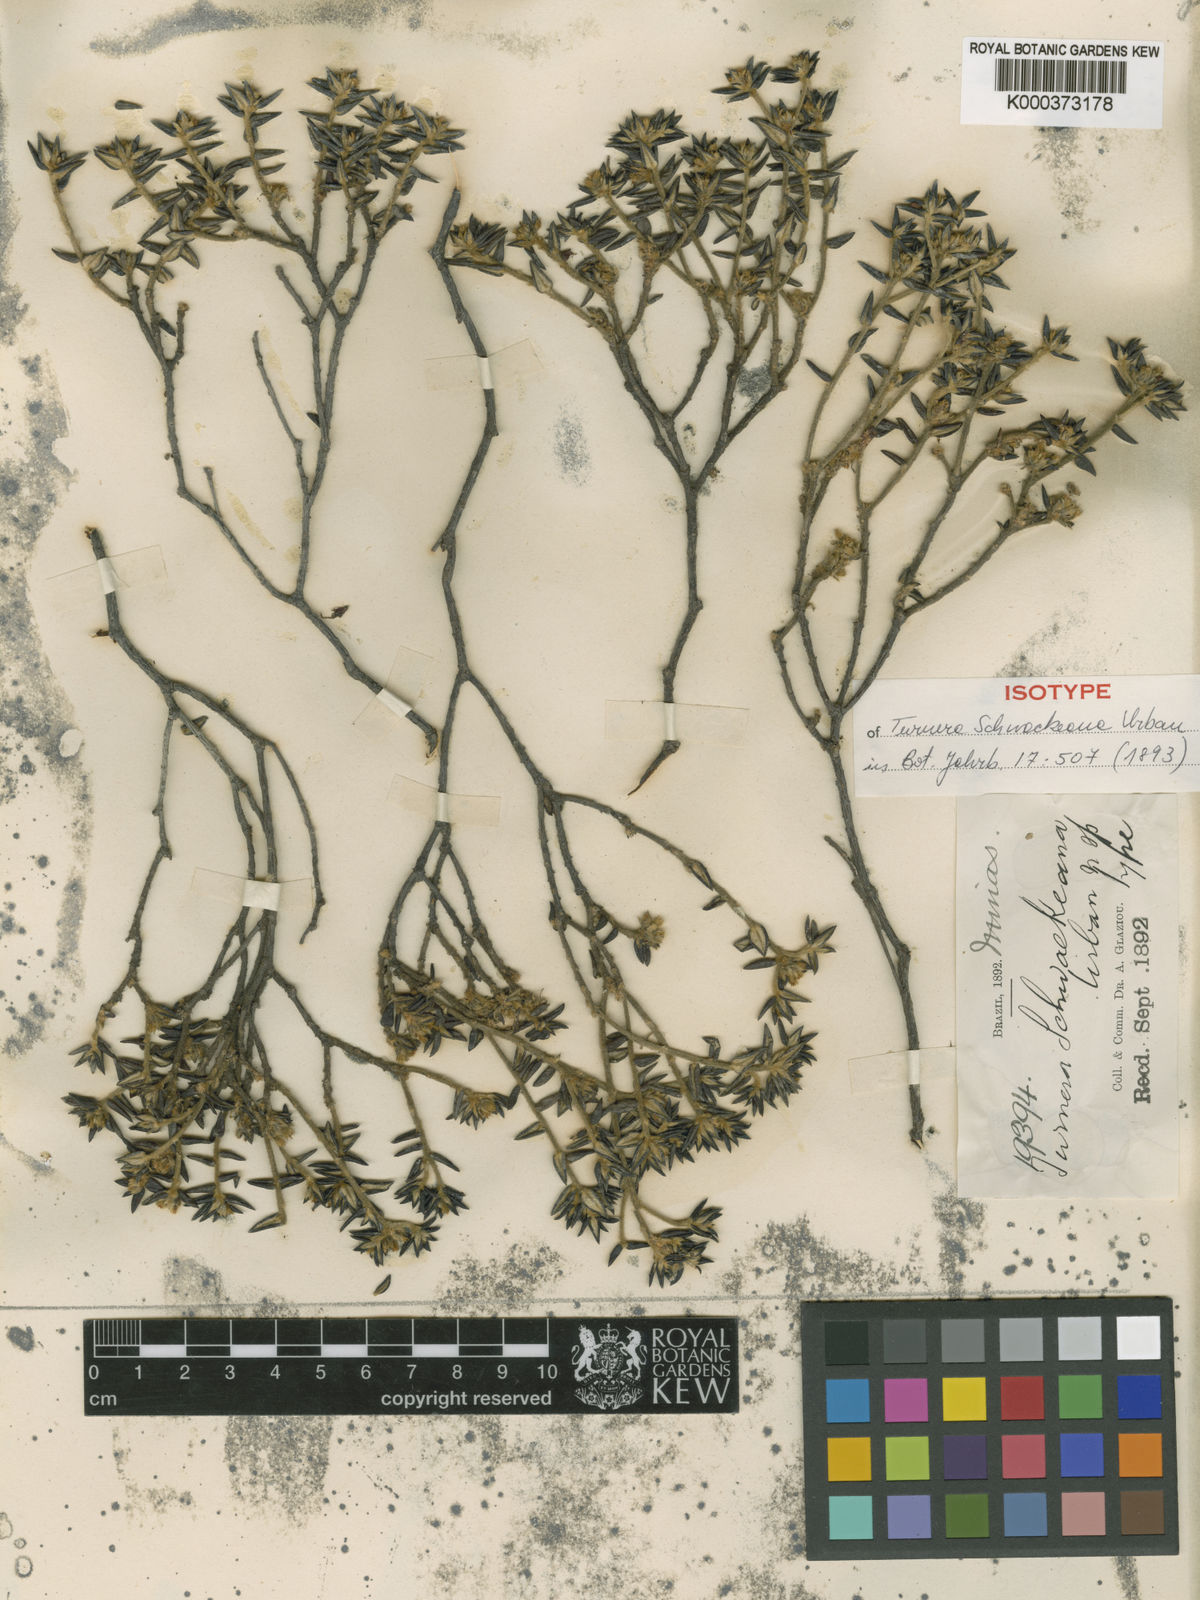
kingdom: Plantae
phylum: Tracheophyta
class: Magnoliopsida
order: Malpighiales
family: Turneraceae
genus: Turnera
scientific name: Turnera
